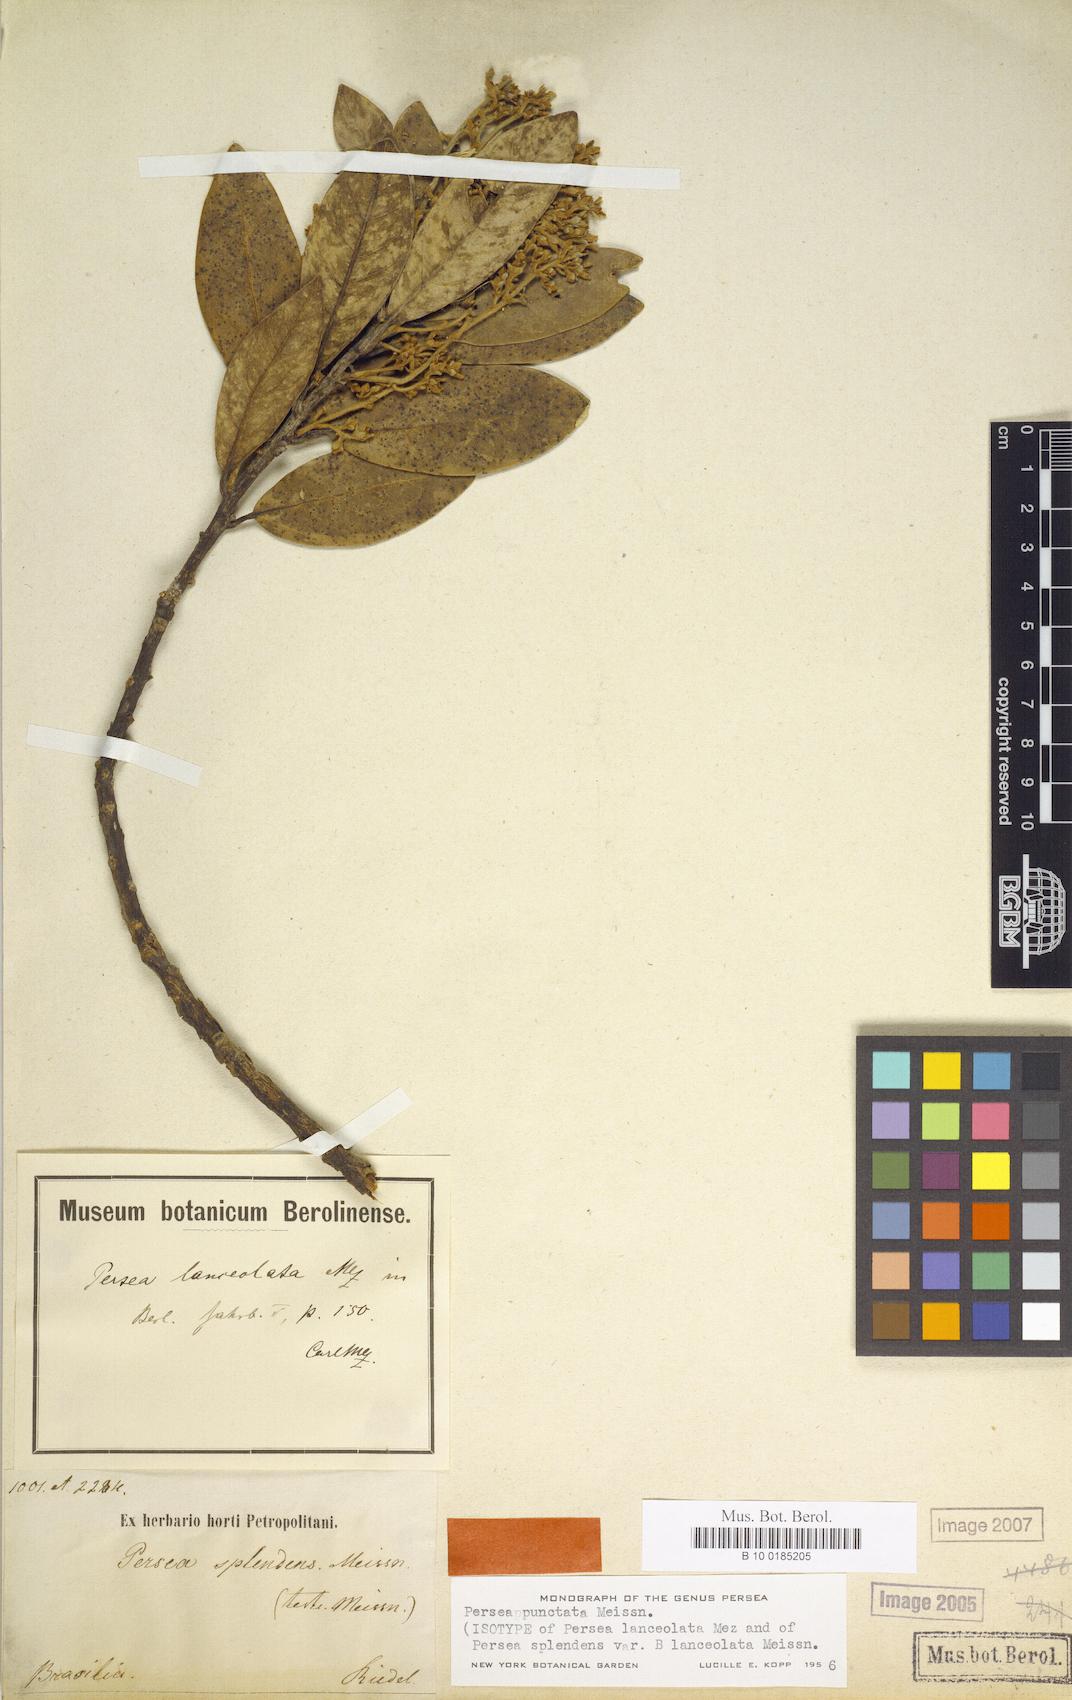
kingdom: Plantae
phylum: Tracheophyta
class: Magnoliopsida
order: Laurales
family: Lauraceae
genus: Persea
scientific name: Persea punctata
